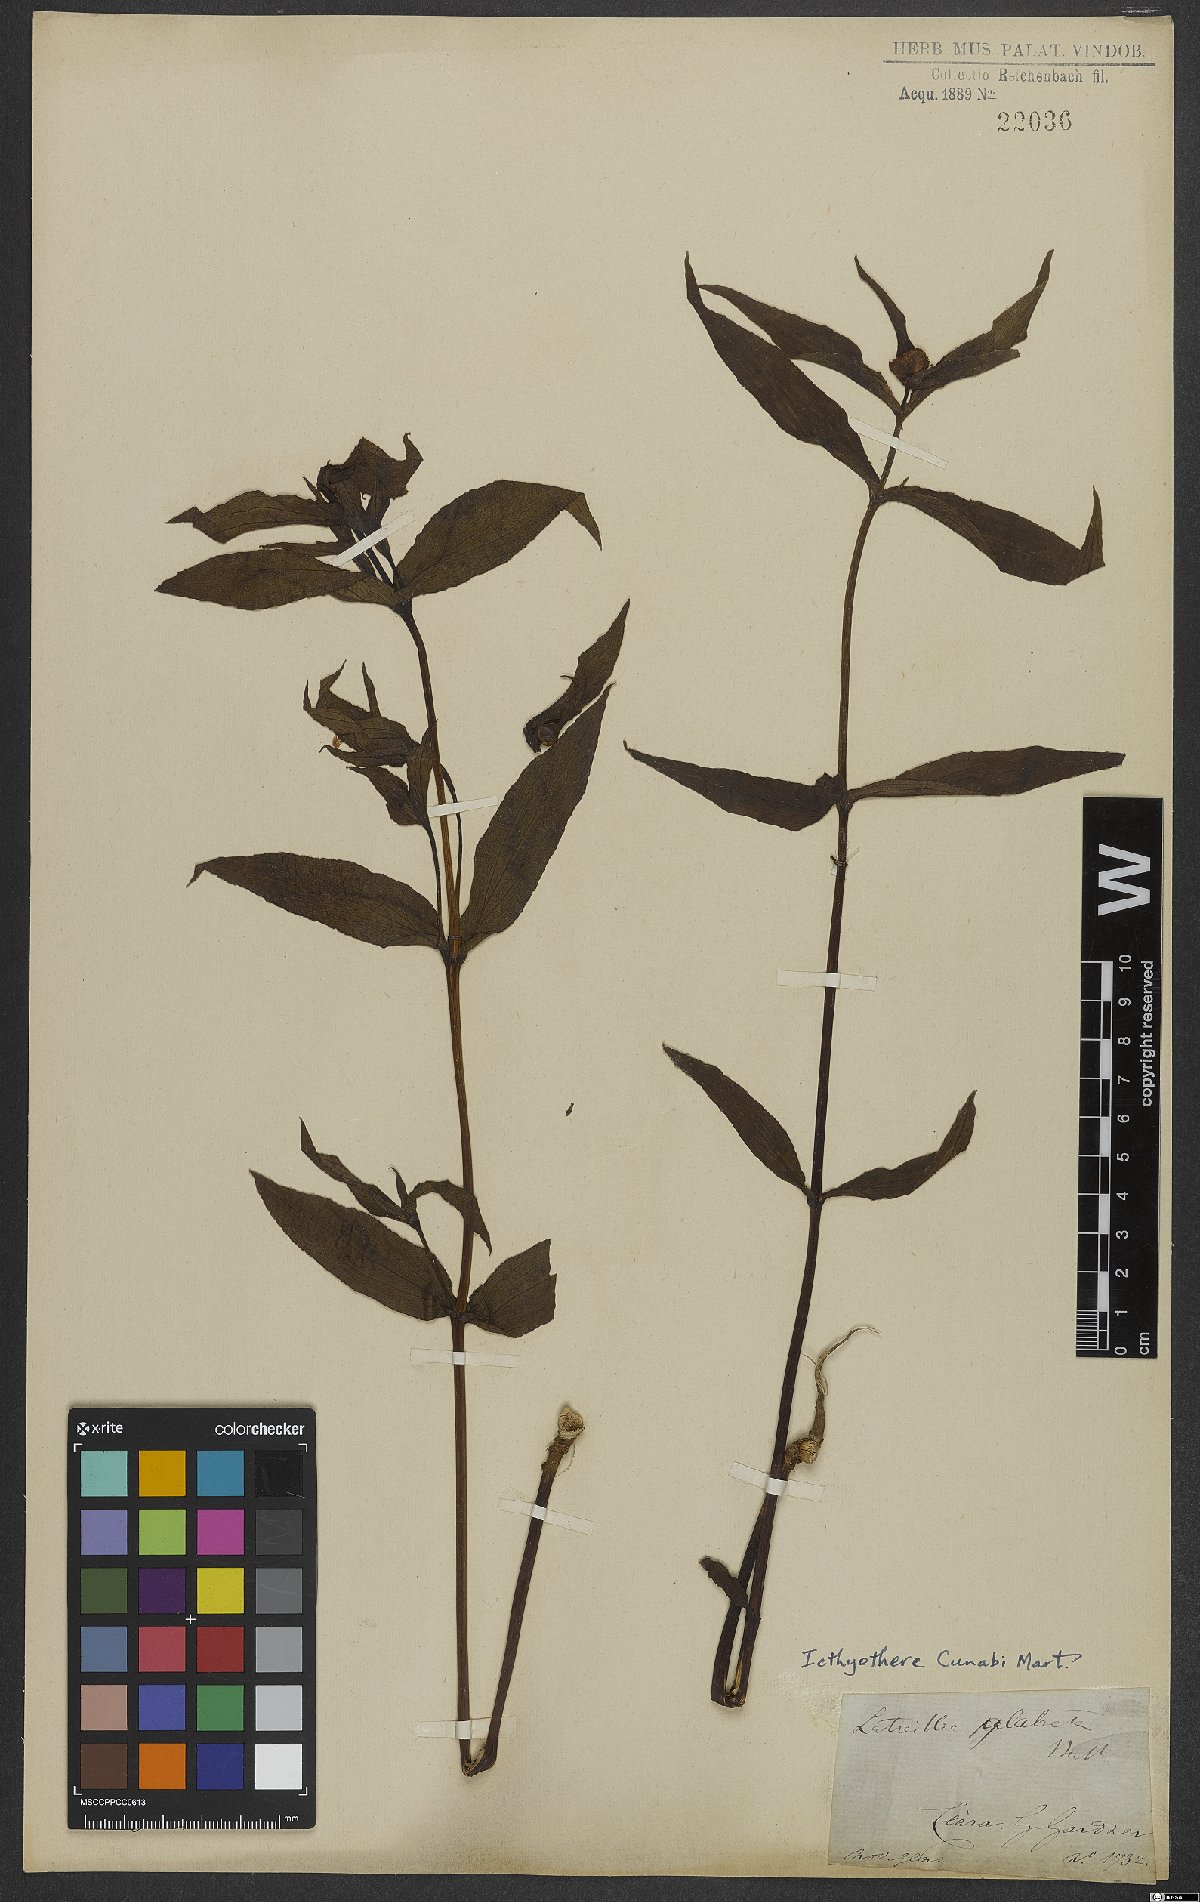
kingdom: Plantae
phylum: Tracheophyta
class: Magnoliopsida
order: Asterales
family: Asteraceae
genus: Ichthyothere
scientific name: Ichthyothere cunabi
